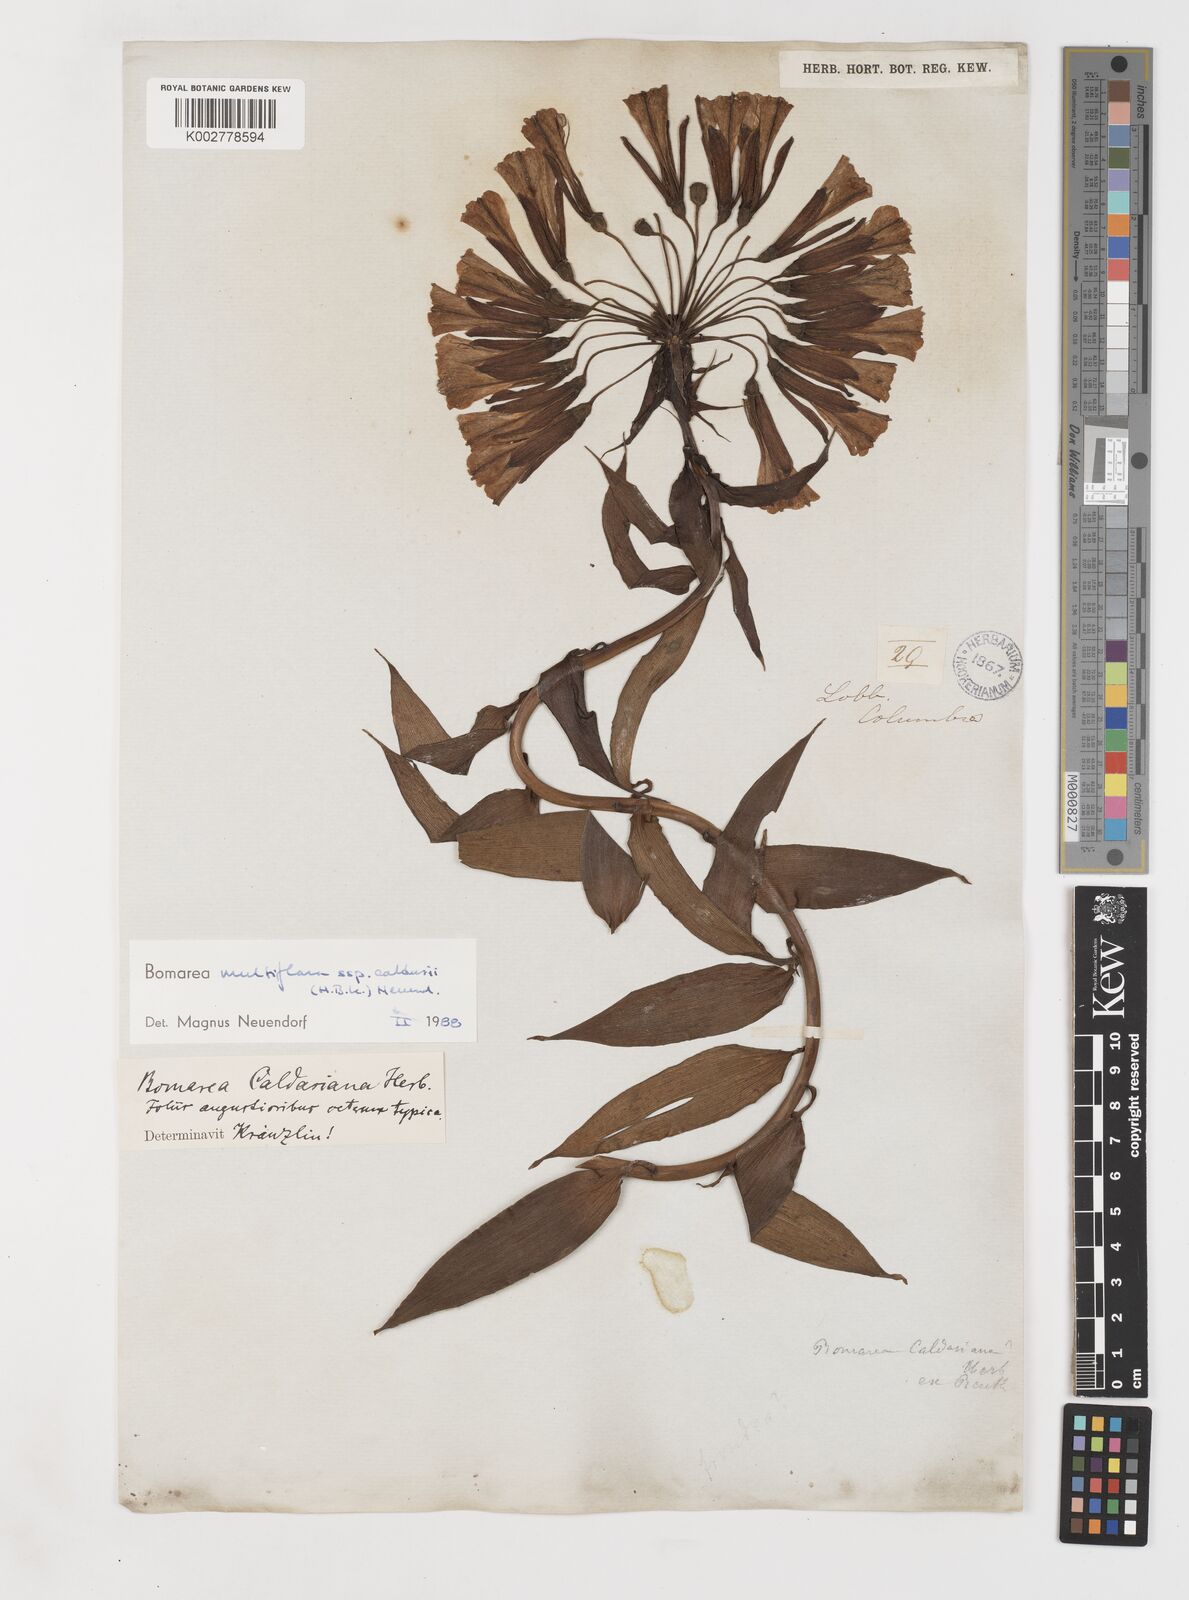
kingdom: Plantae
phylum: Tracheophyta
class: Liliopsida
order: Liliales
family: Alstroemeriaceae
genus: Bomarea
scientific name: Bomarea multiflora
